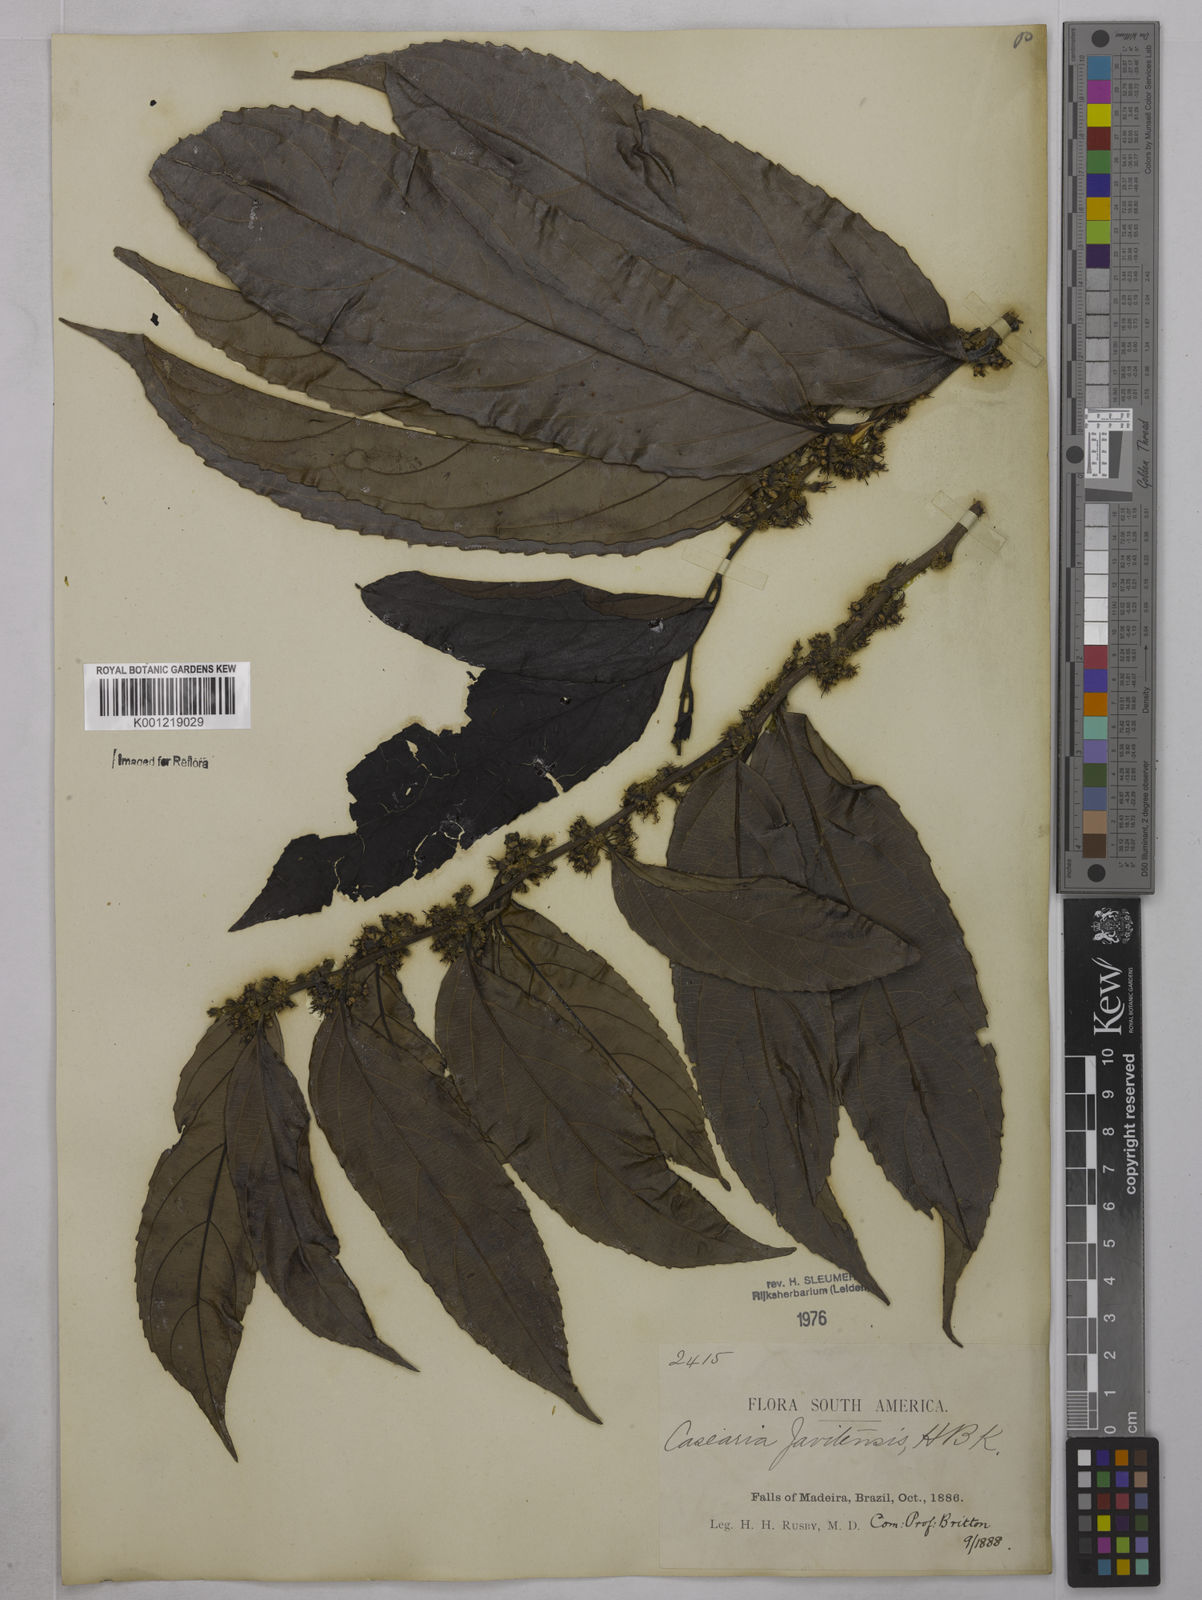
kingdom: Plantae
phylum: Tracheophyta
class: Magnoliopsida
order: Malpighiales
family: Salicaceae
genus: Piparea
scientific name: Piparea multiflora
